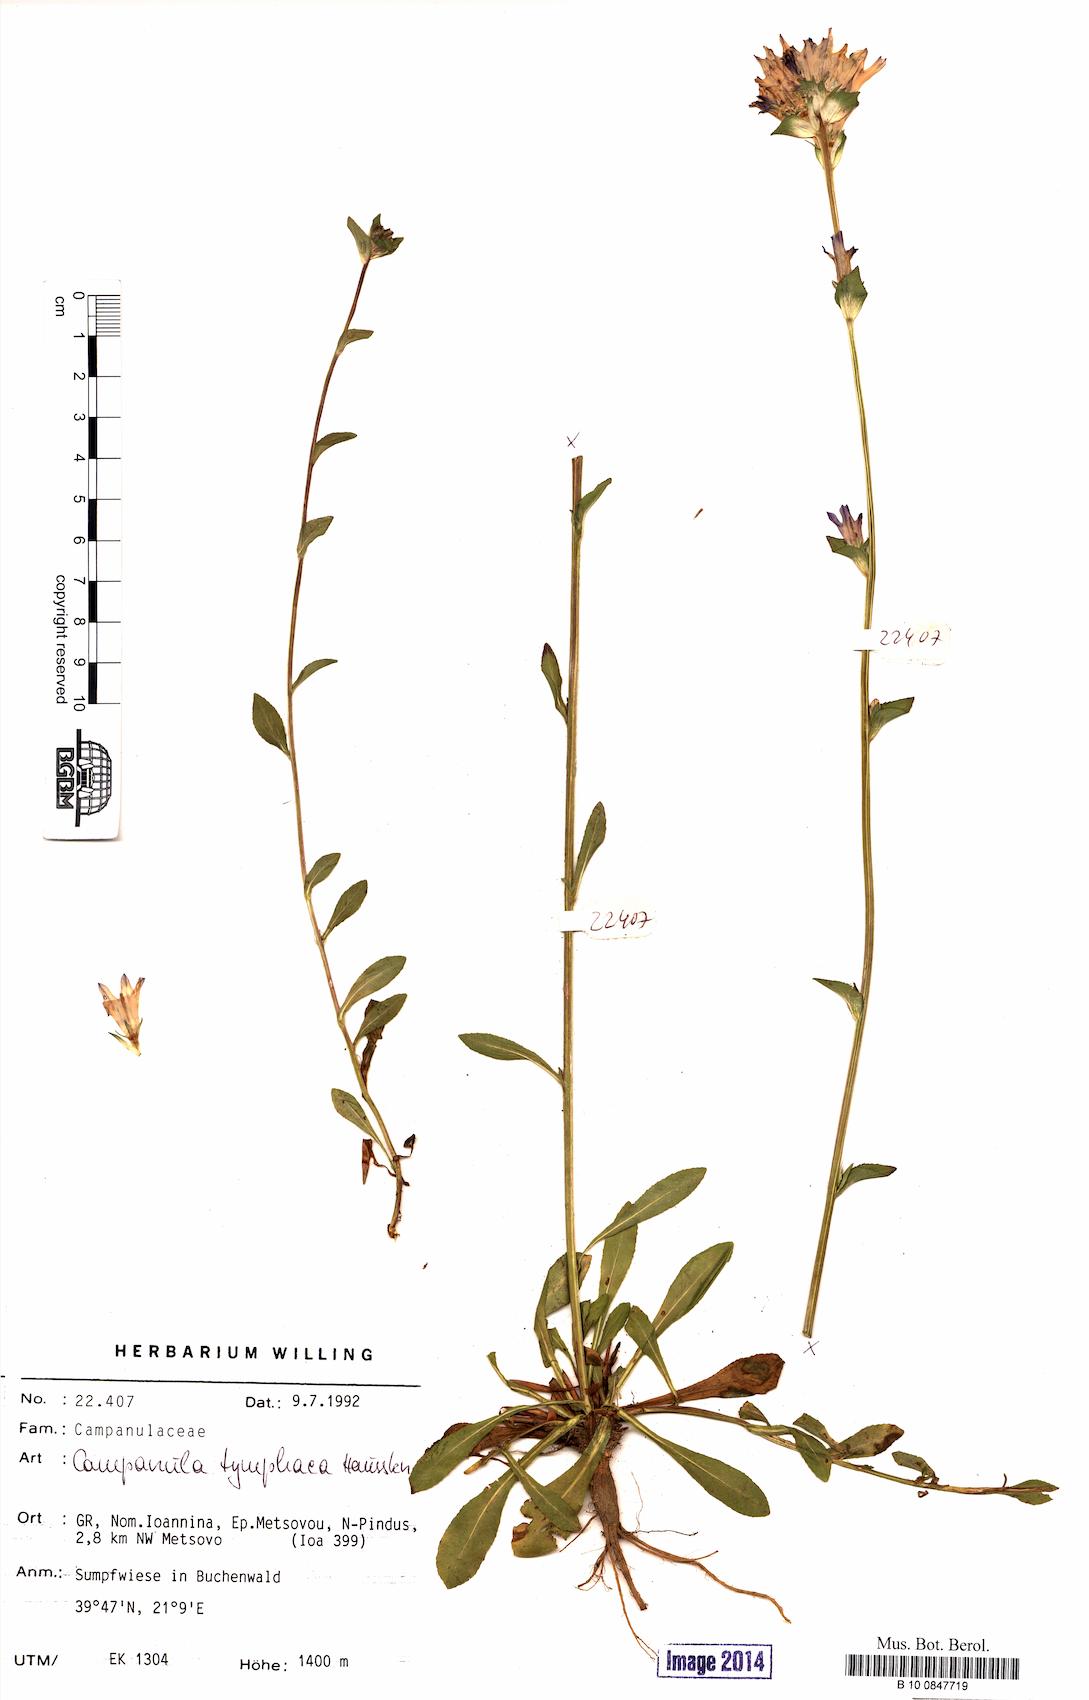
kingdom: Plantae
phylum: Tracheophyta
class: Magnoliopsida
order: Asterales
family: Campanulaceae
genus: Campanula
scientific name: Campanula tymphaea
